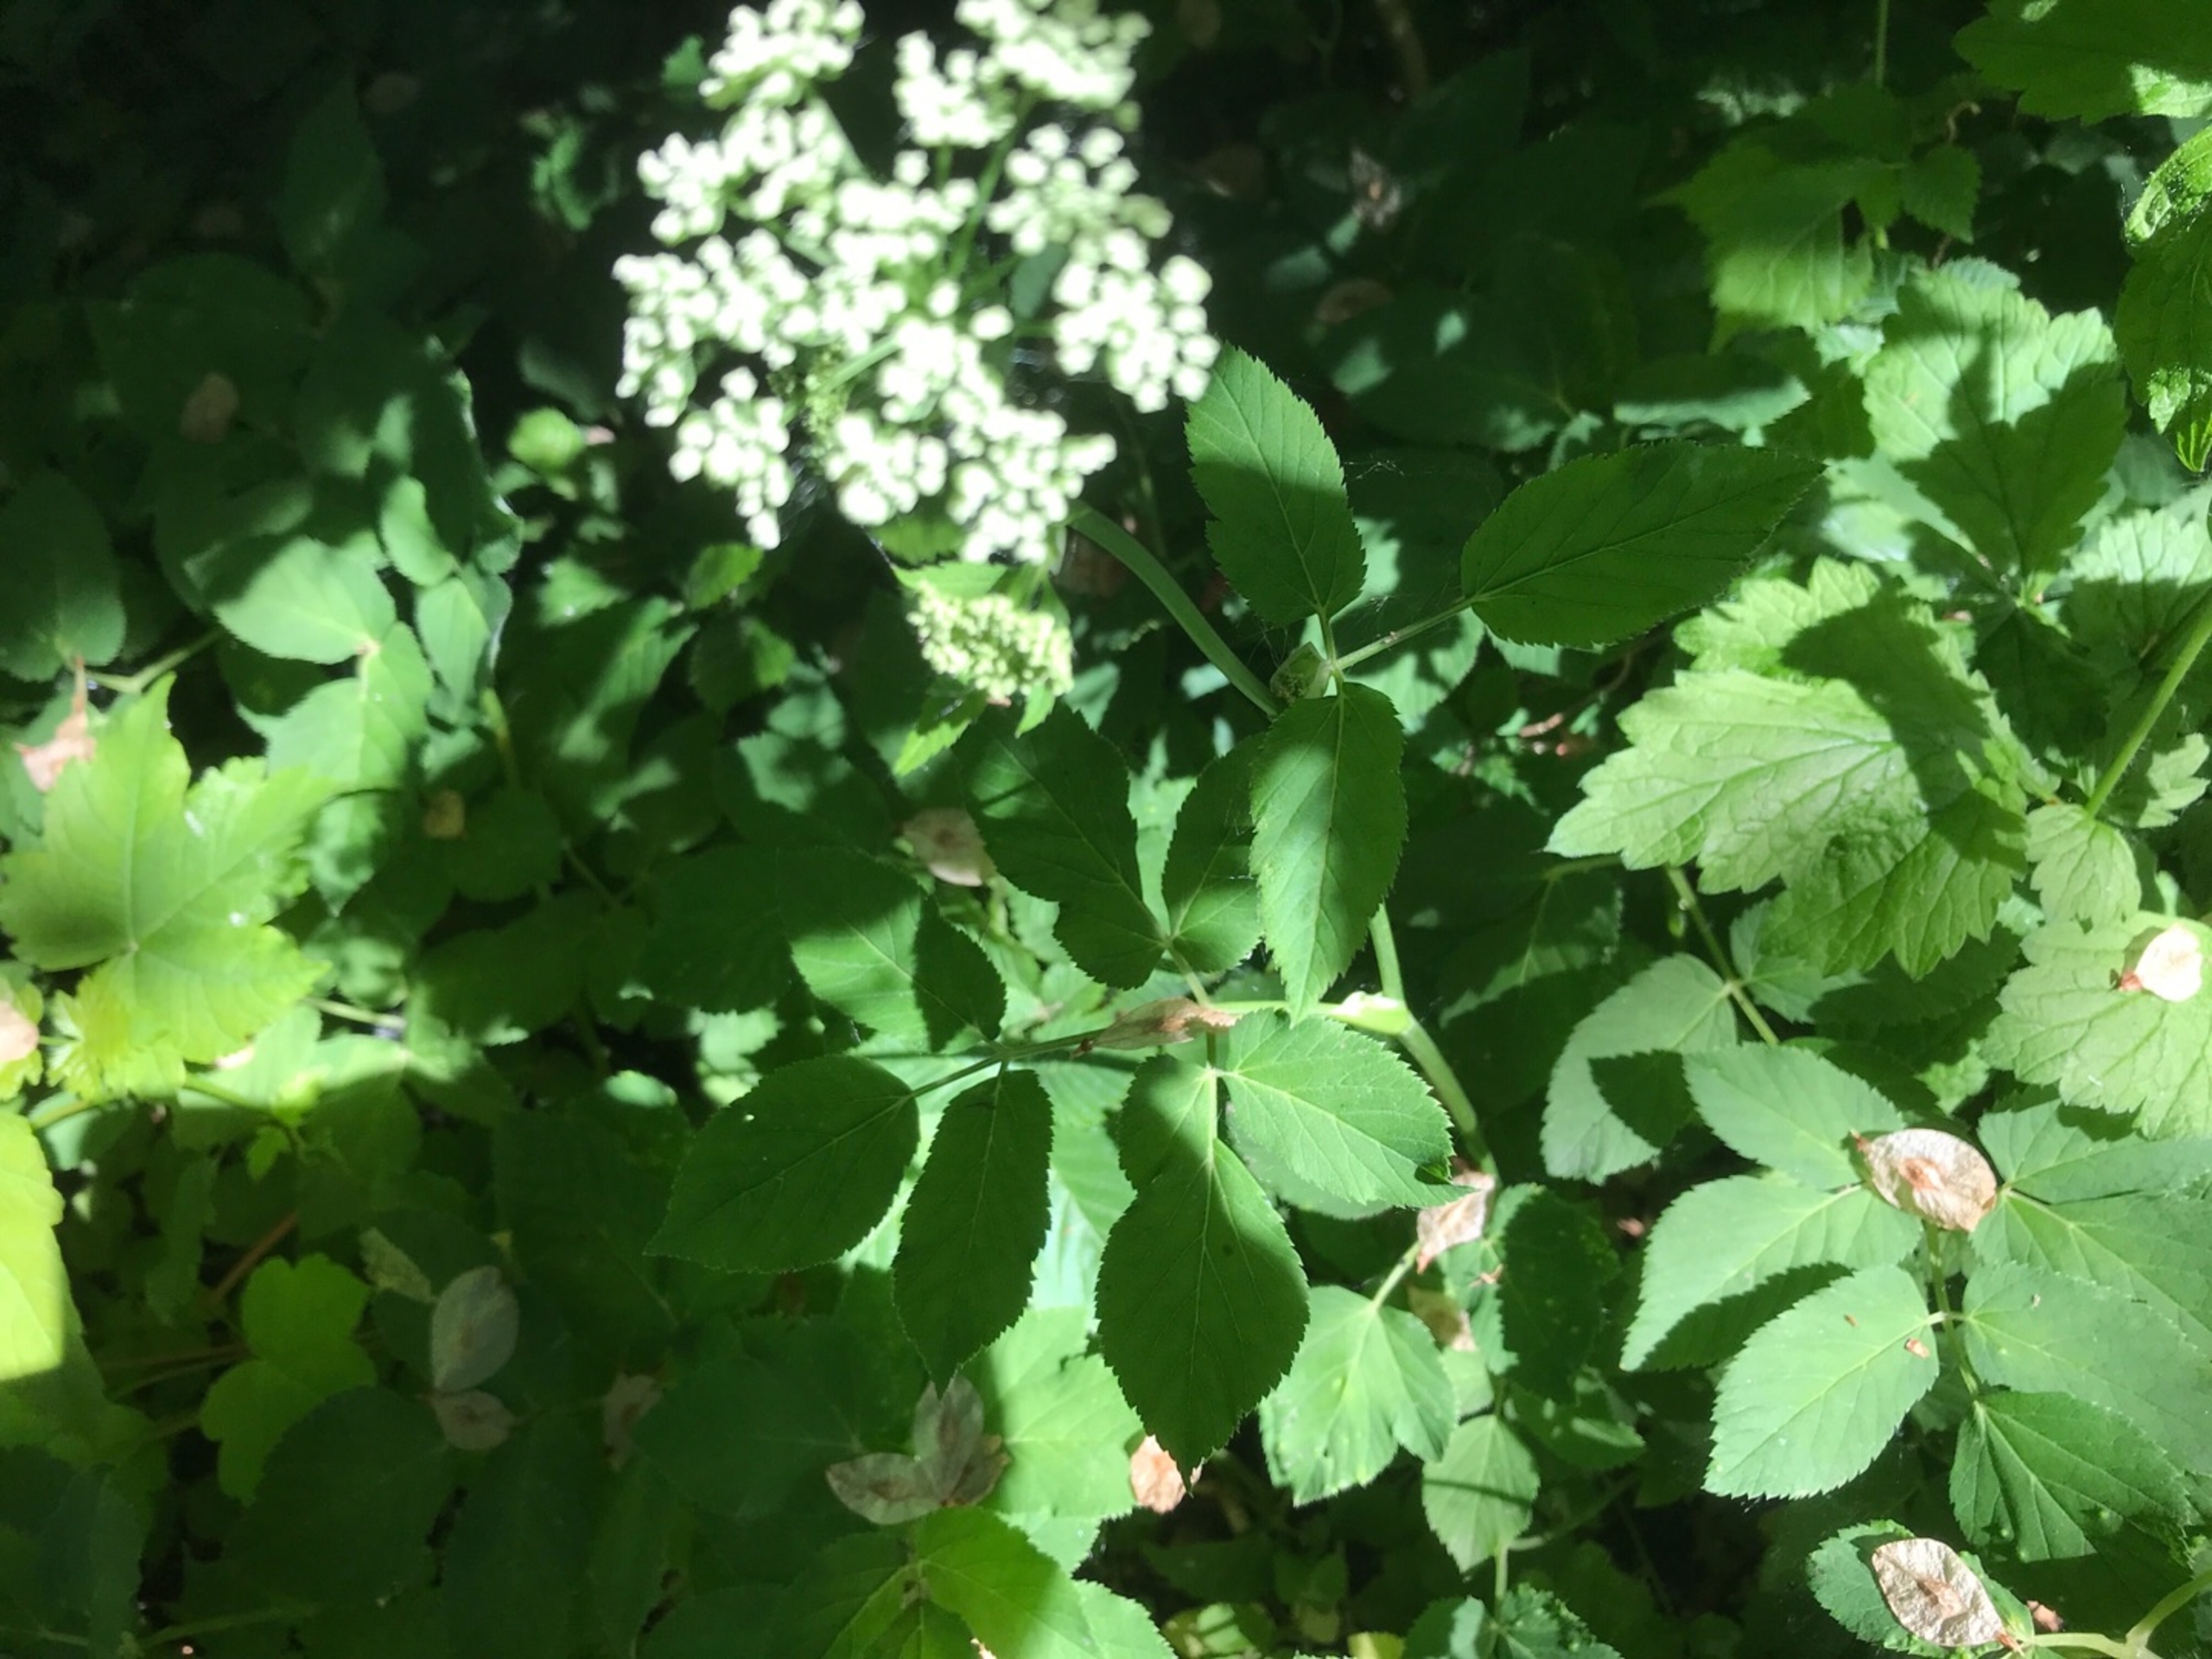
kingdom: Plantae
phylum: Tracheophyta
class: Magnoliopsida
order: Apiales
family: Apiaceae
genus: Aegopodium
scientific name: Aegopodium podagraria
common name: Skvalderkål
